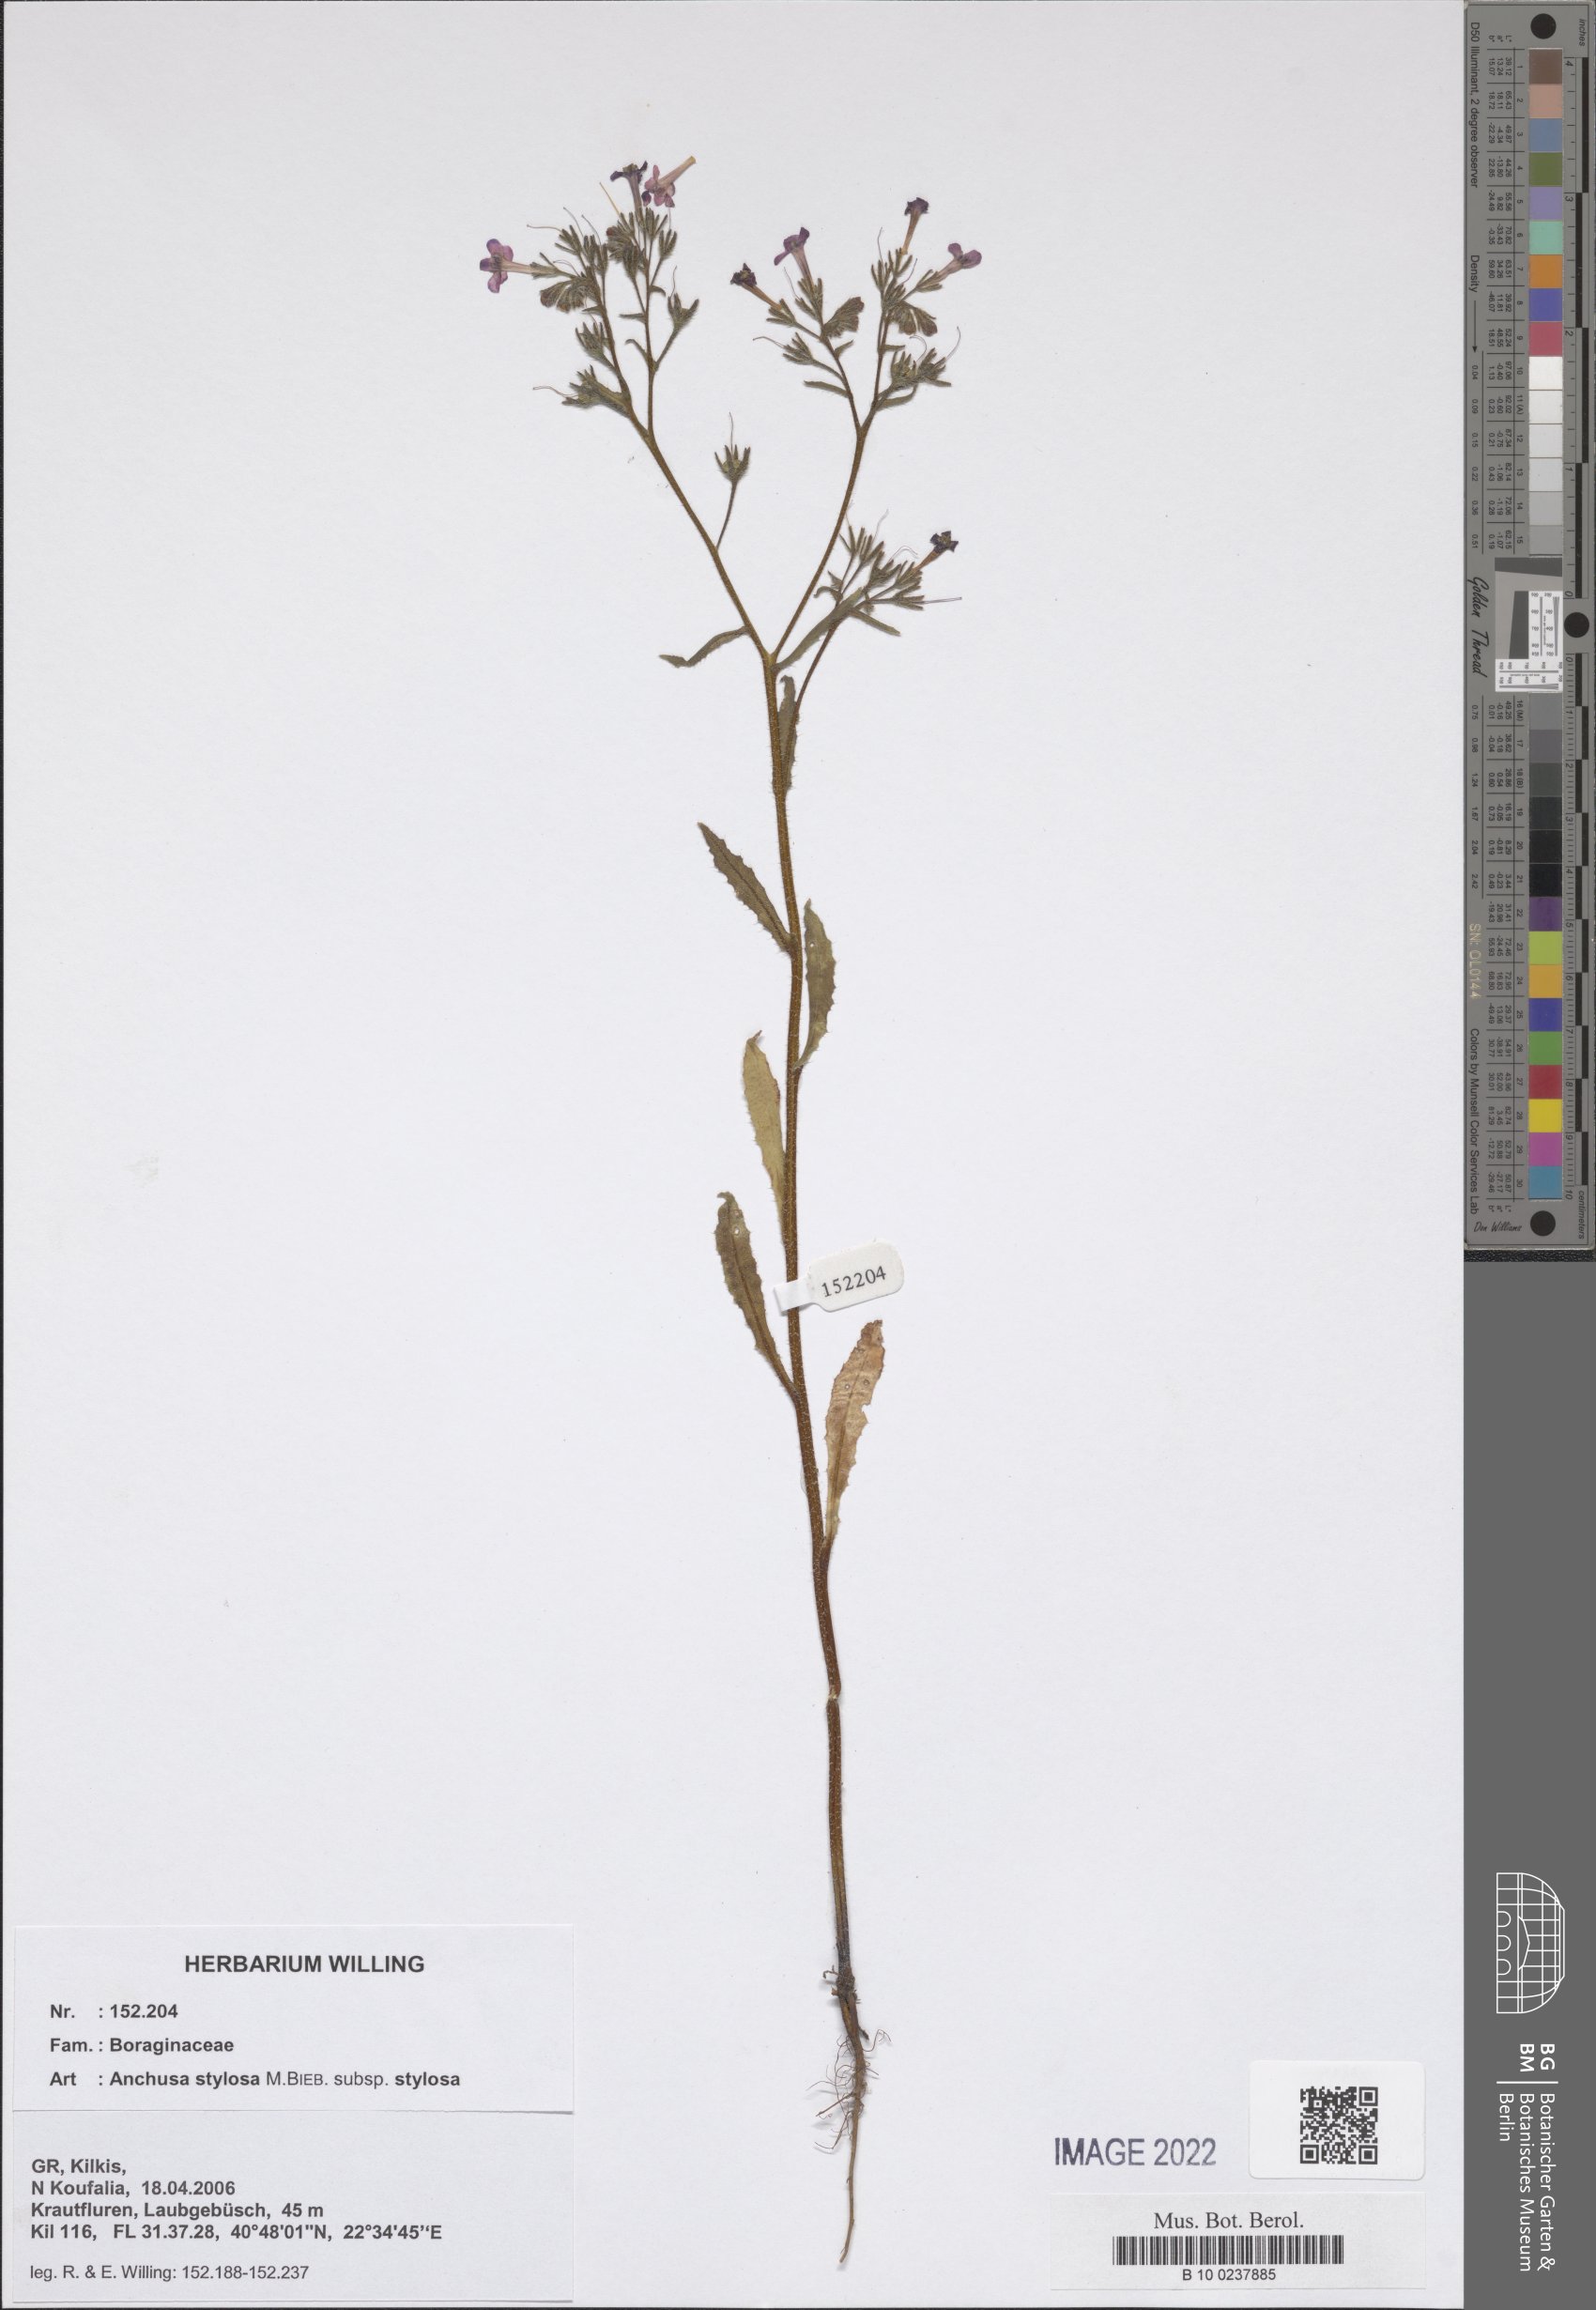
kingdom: Plantae
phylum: Tracheophyta
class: Magnoliopsida
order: Boraginales
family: Boraginaceae
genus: Anchusa
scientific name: Anchusa stylosa
